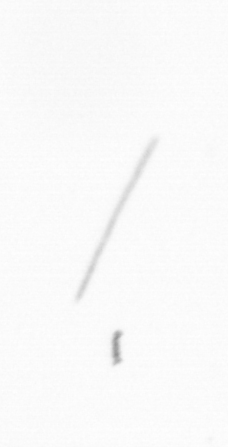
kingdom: Chromista
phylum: Ochrophyta
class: Bacillariophyceae
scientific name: Bacillariophyceae
